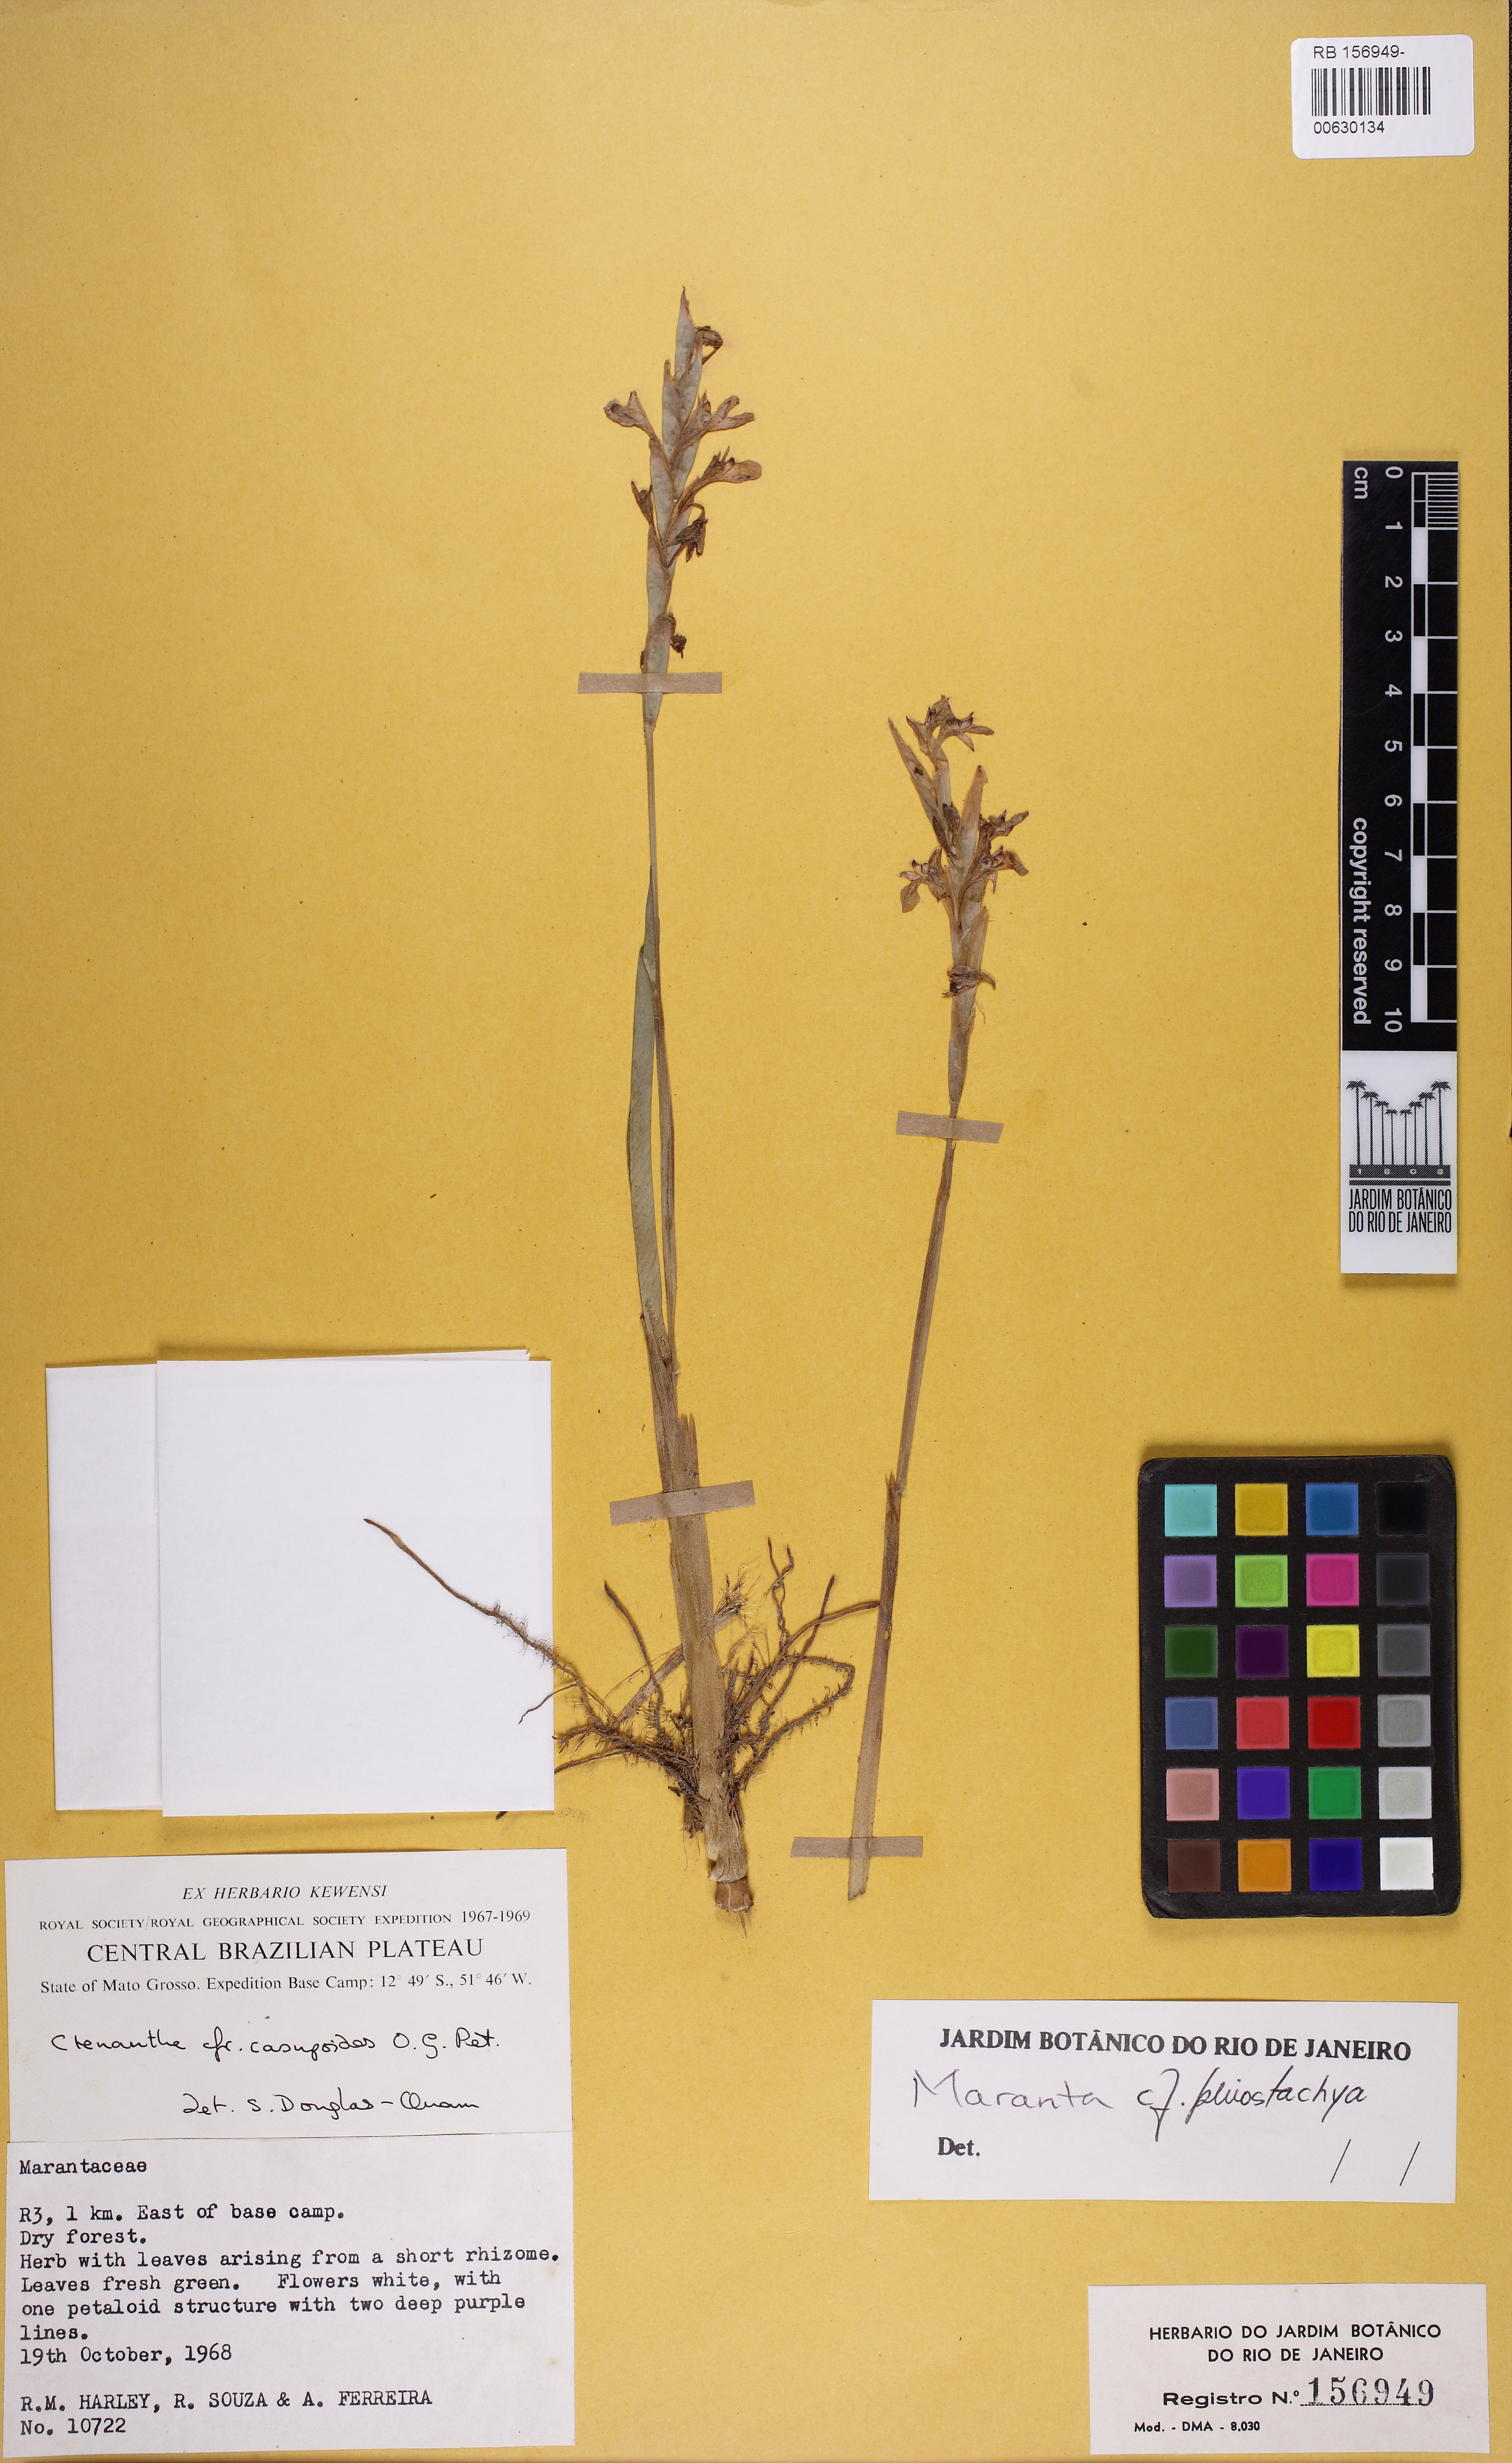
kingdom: Plantae
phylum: Tracheophyta
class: Liliopsida
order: Zingiberales
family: Marantaceae
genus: Maranta
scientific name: Maranta phrynioides
